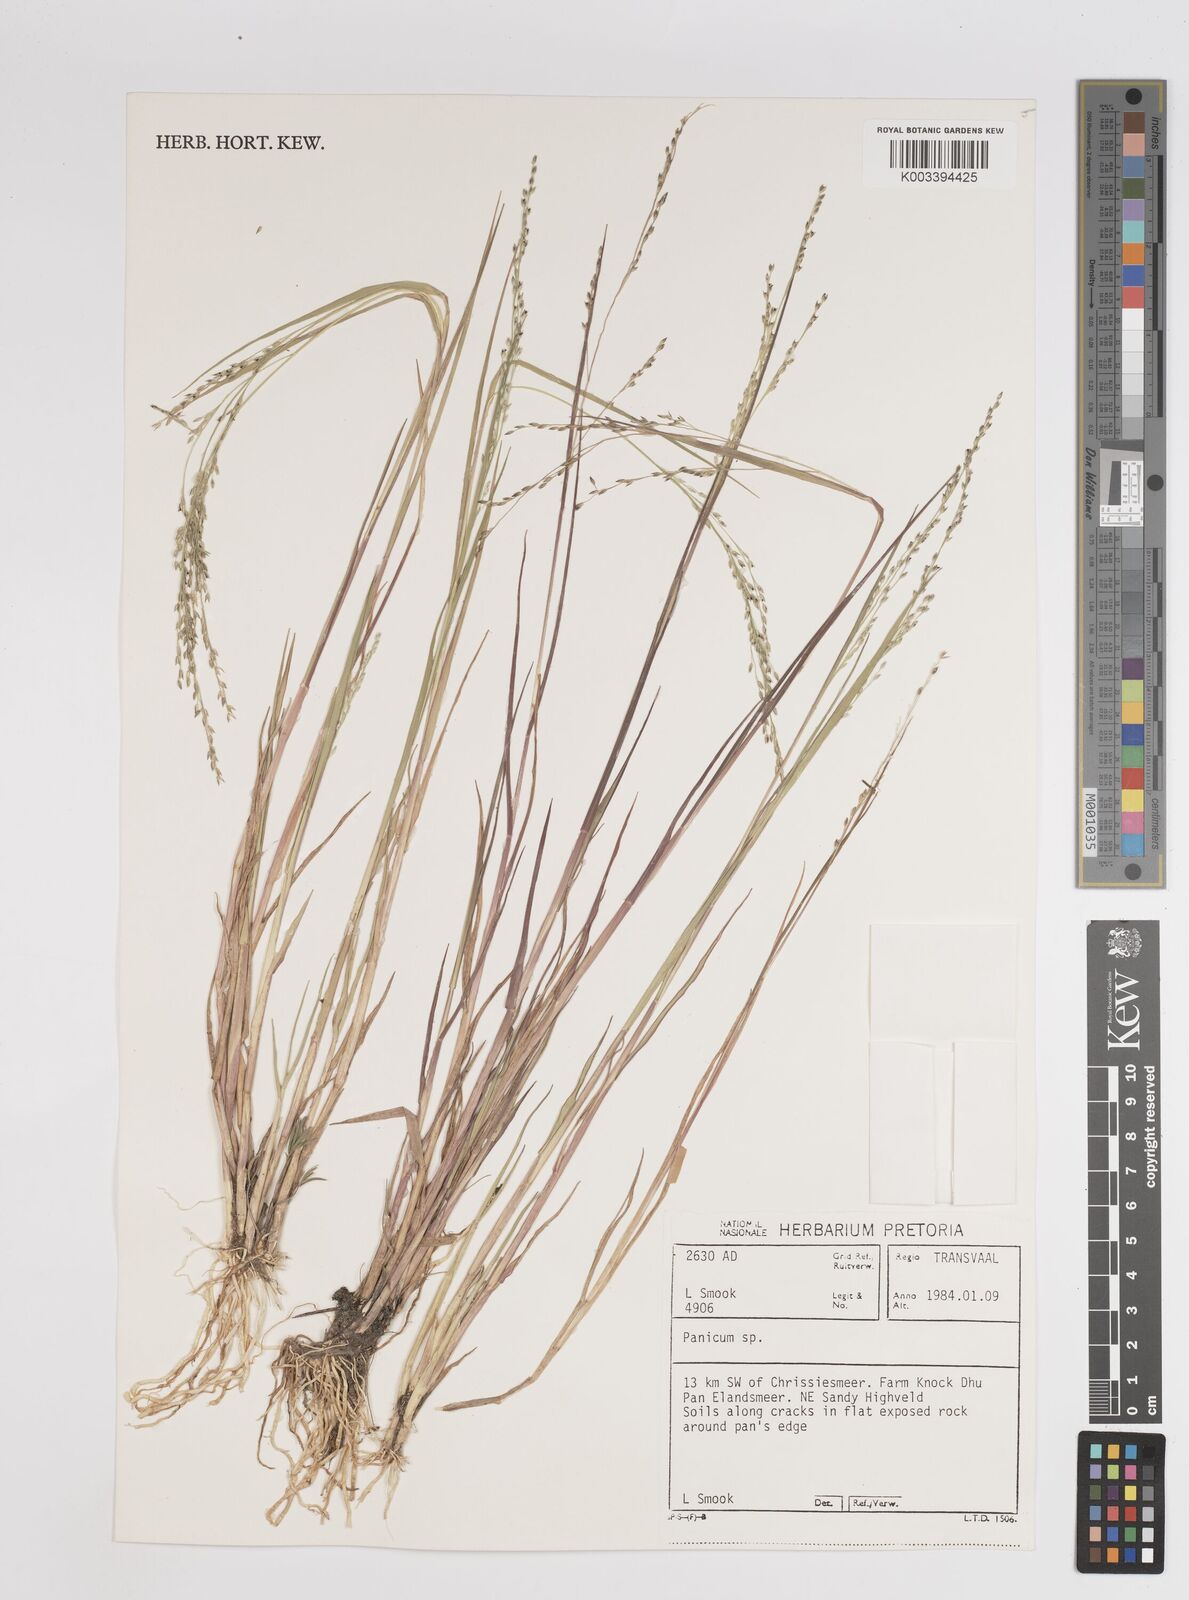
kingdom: Plantae
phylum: Tracheophyta
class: Liliopsida
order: Poales
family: Poaceae
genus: Panicum
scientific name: Panicum
